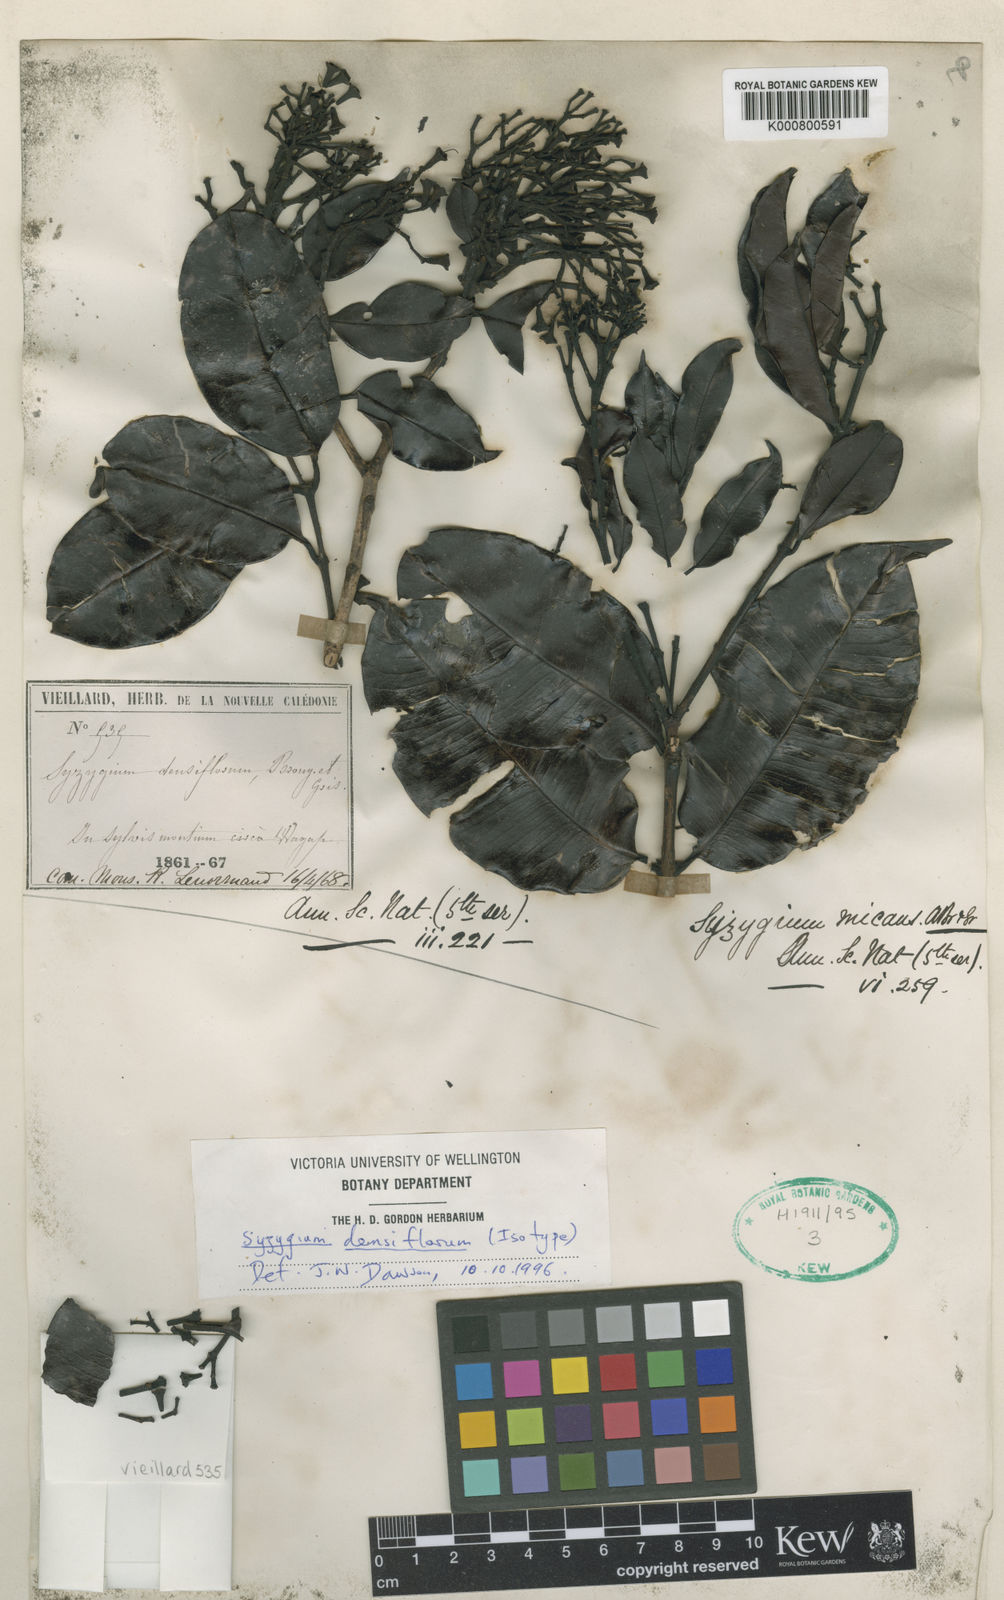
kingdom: Plantae
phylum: Tracheophyta
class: Magnoliopsida
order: Myrtales
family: Myrtaceae
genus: Syzygium
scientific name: Syzygium densiflorum
